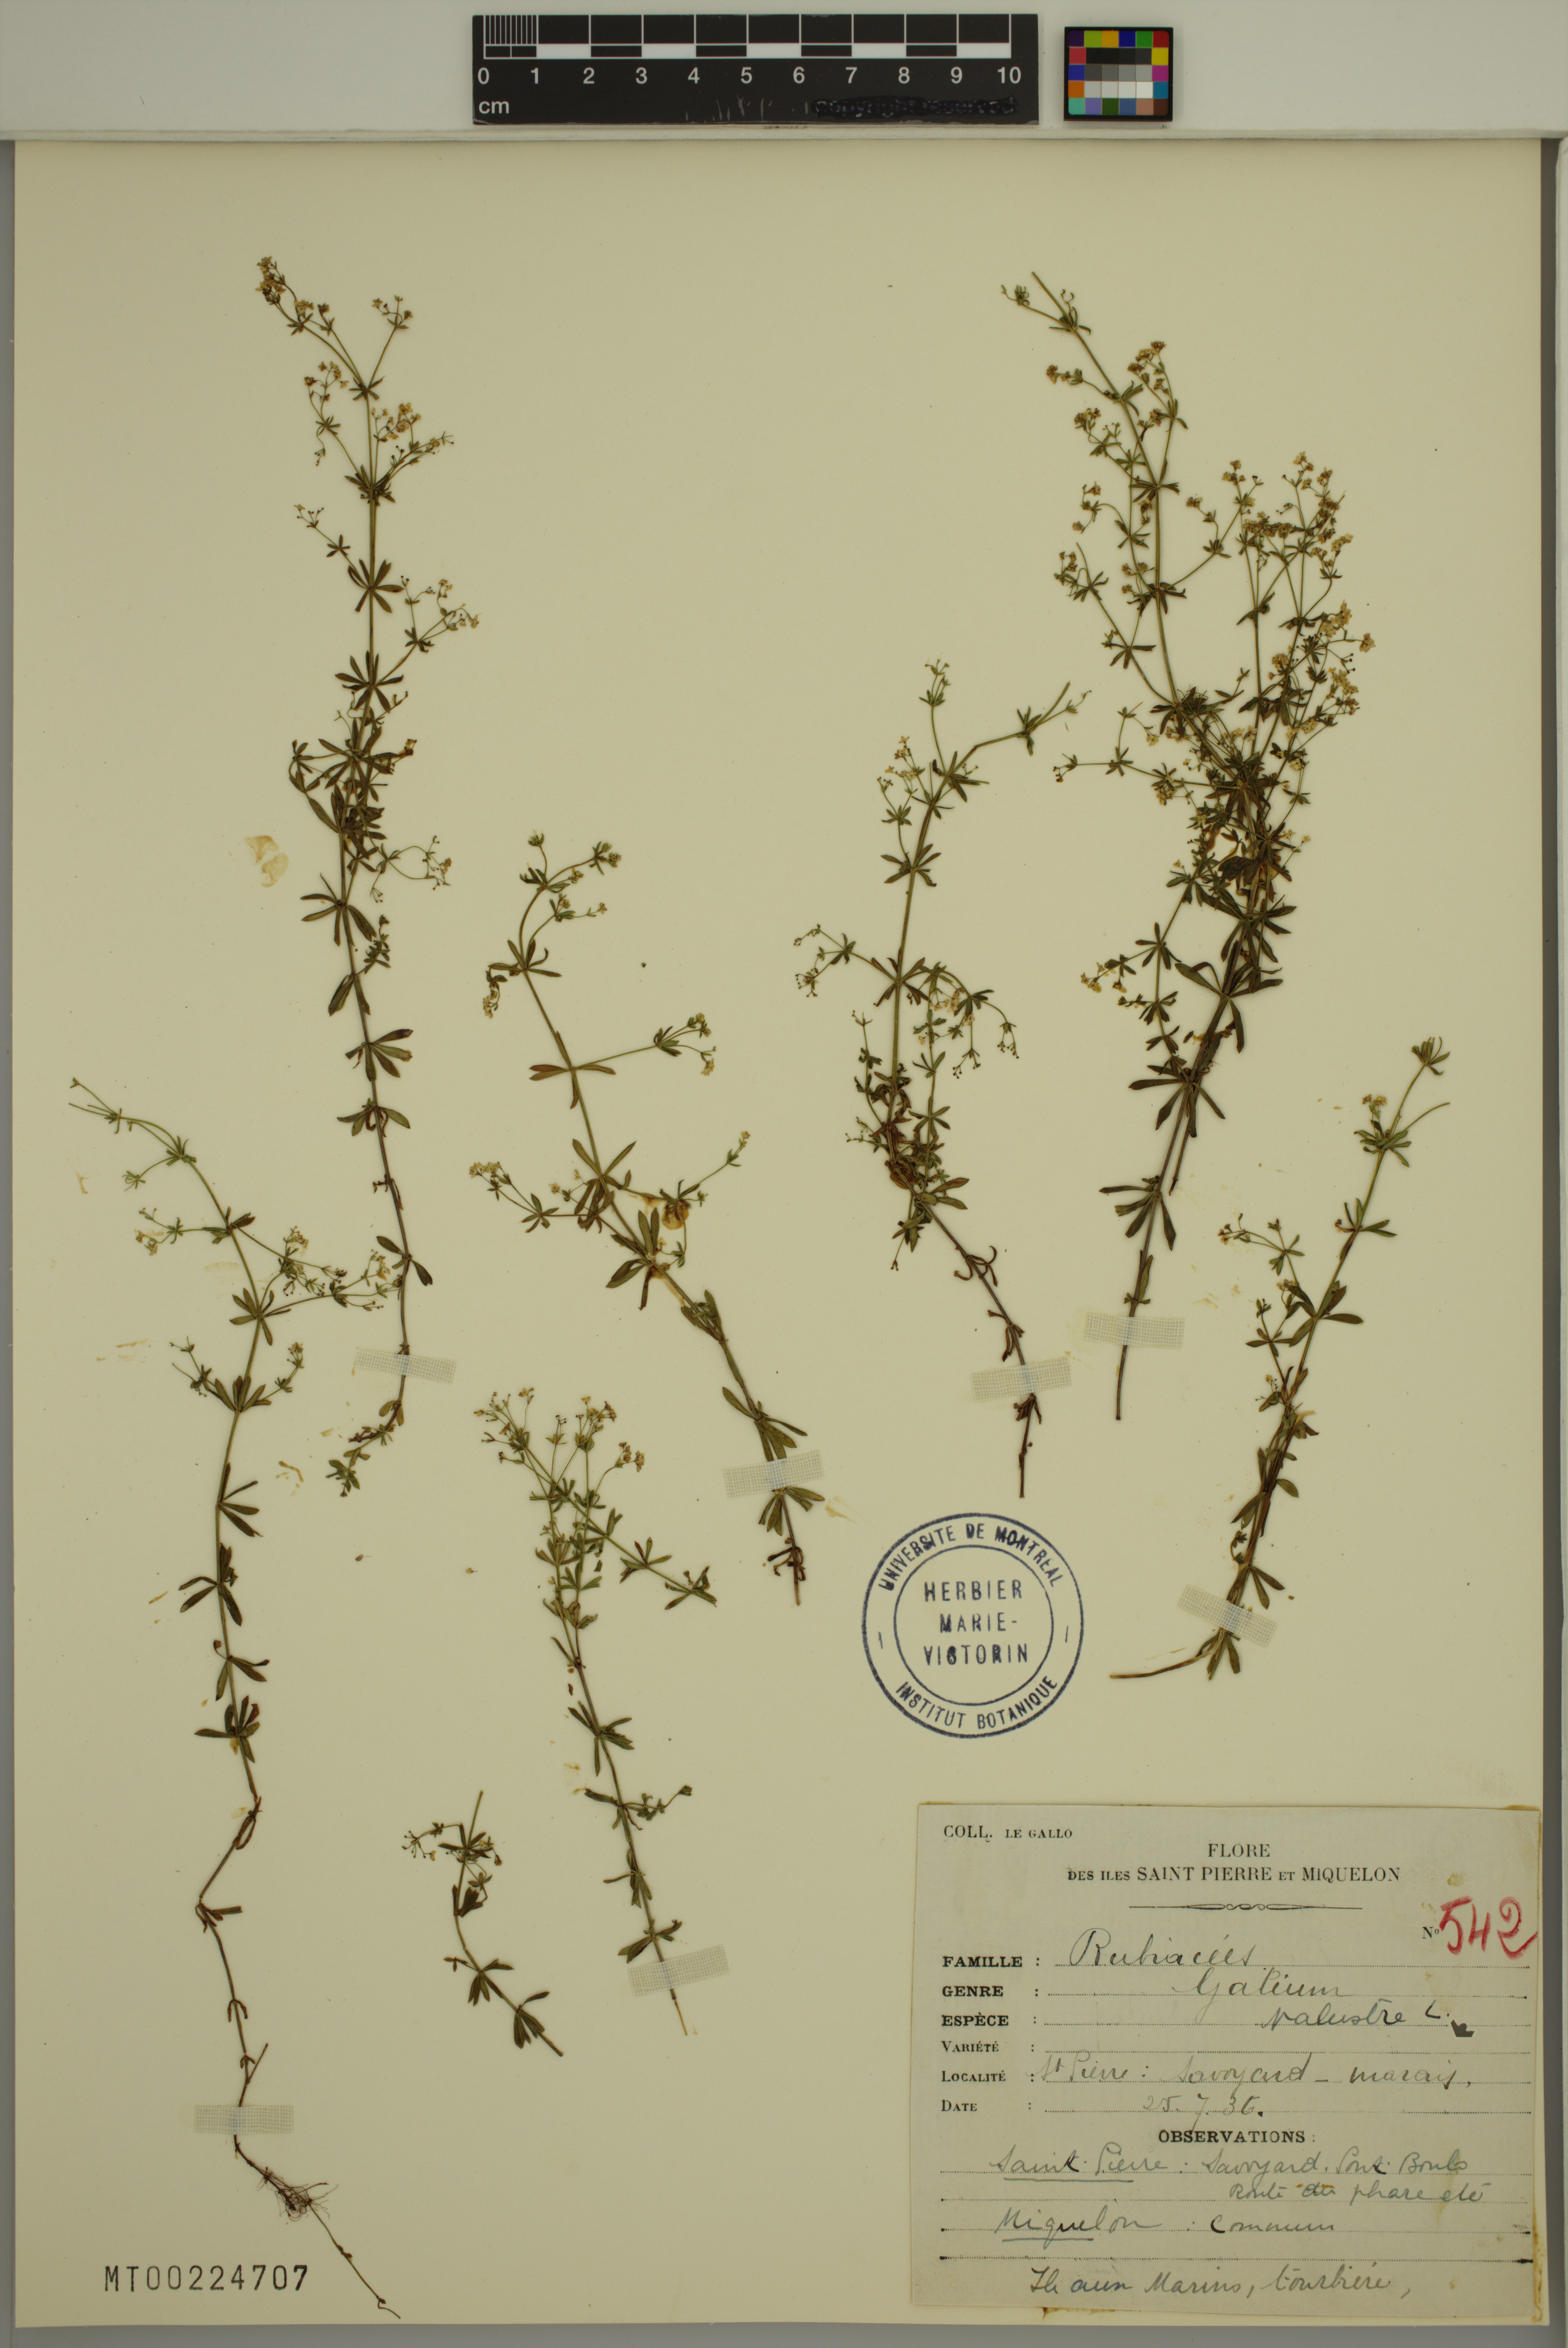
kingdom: Plantae
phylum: Tracheophyta
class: Magnoliopsida
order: Gentianales
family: Rubiaceae
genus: Galium
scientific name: Galium palustre
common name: Common marsh-bedstraw
